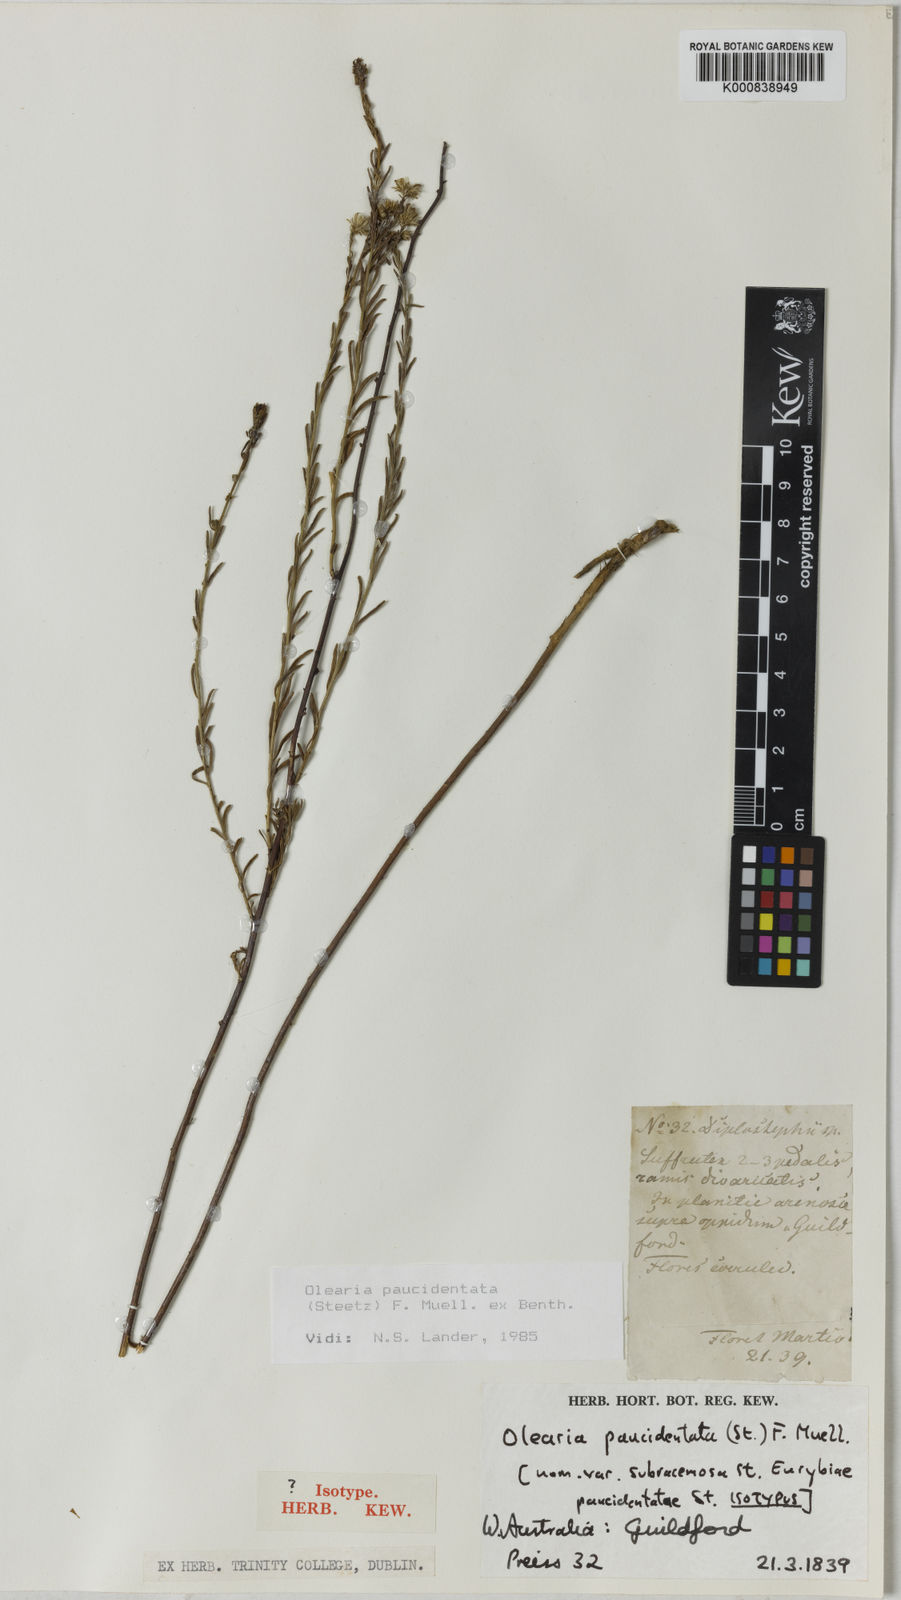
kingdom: Plantae
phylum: Tracheophyta
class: Magnoliopsida
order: Asterales
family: Asteraceae
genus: Olearia
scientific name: Olearia paucidentata
